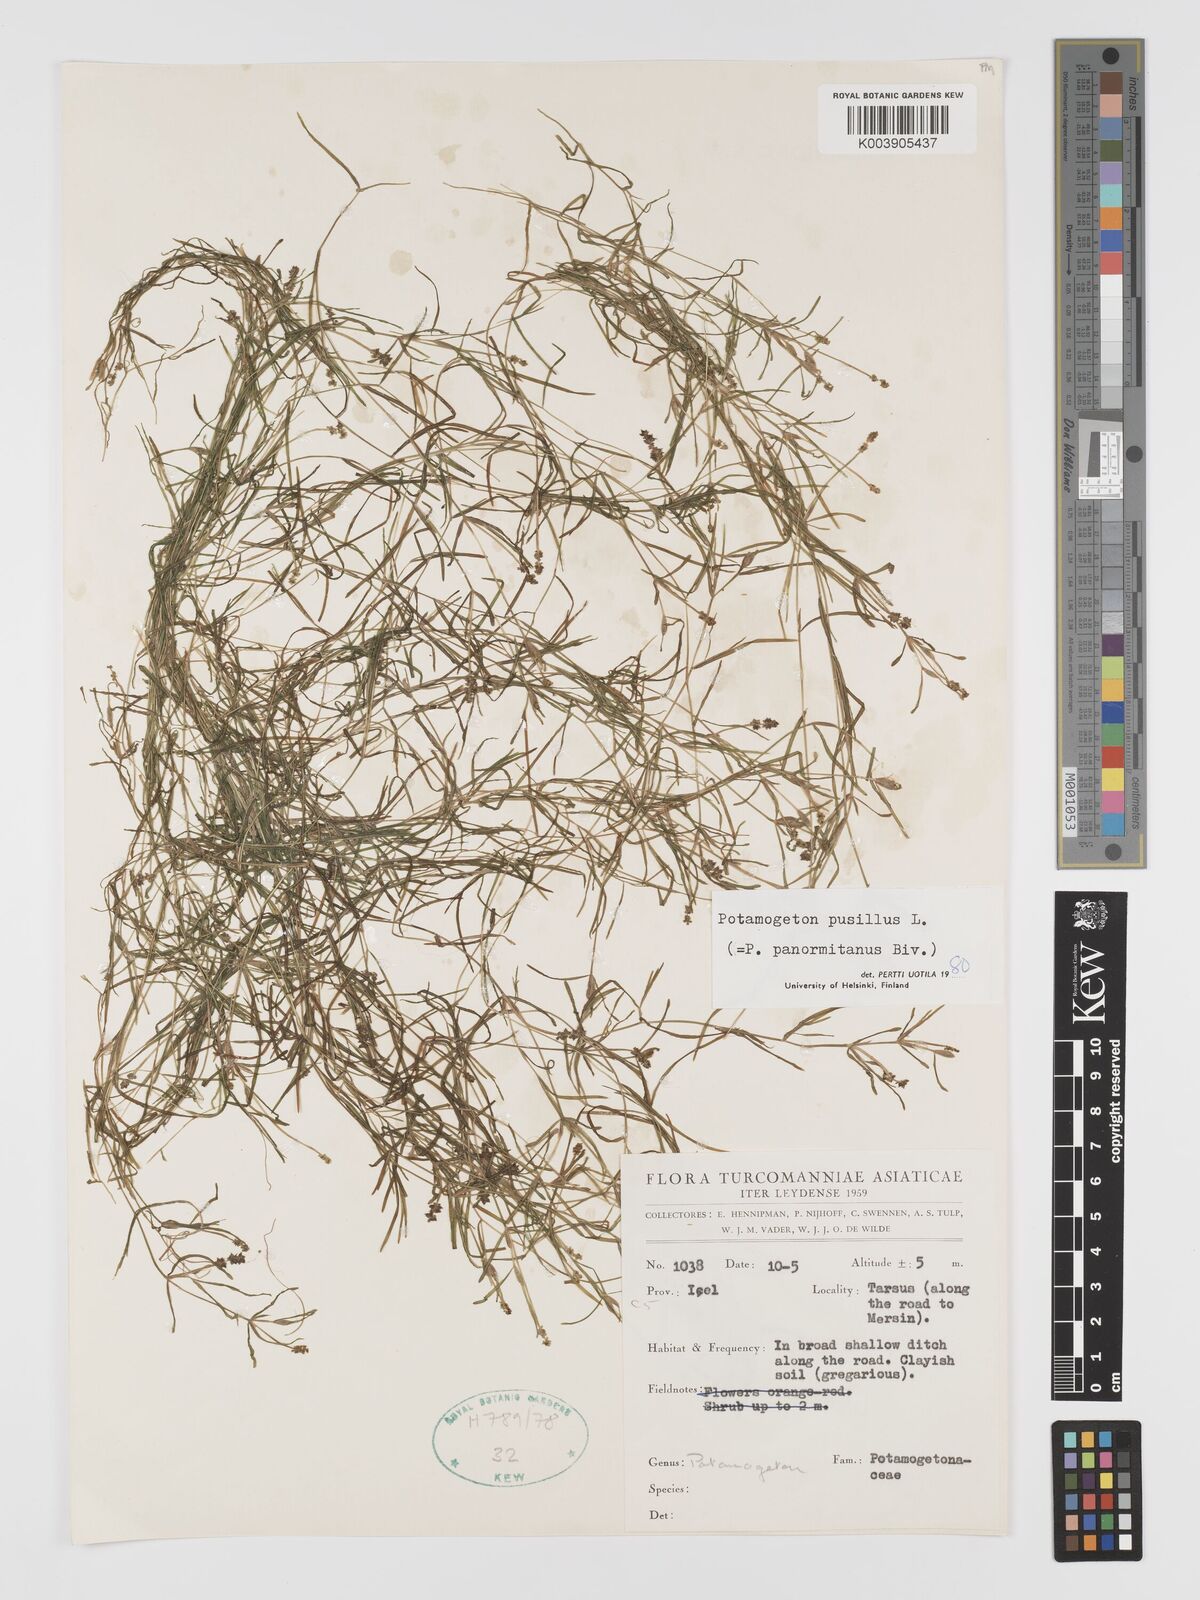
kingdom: Plantae
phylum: Tracheophyta
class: Liliopsida
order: Alismatales
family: Potamogetonaceae
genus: Potamogeton
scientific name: Potamogeton pusillus
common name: Lesser pondweed
